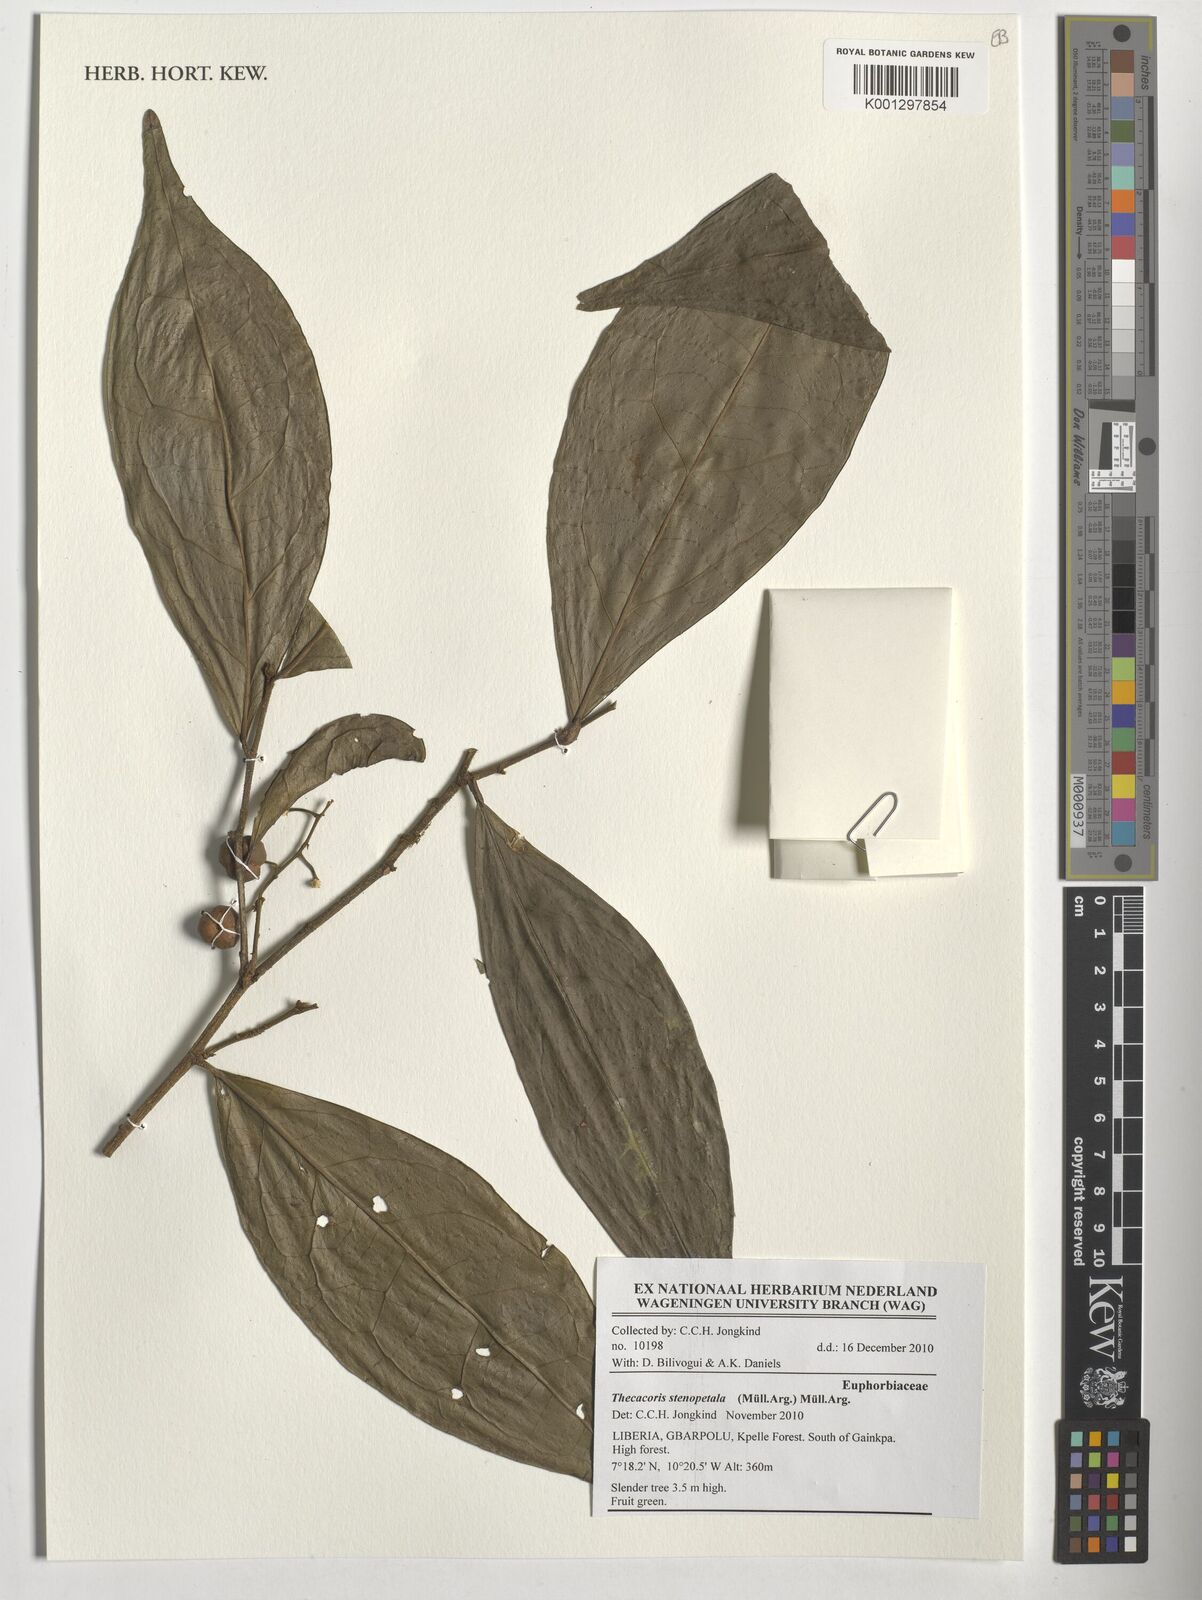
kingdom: Plantae
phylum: Tracheophyta
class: Magnoliopsida
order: Malpighiales
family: Phyllanthaceae
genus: Thecacoris
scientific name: Thecacoris stenopetala
